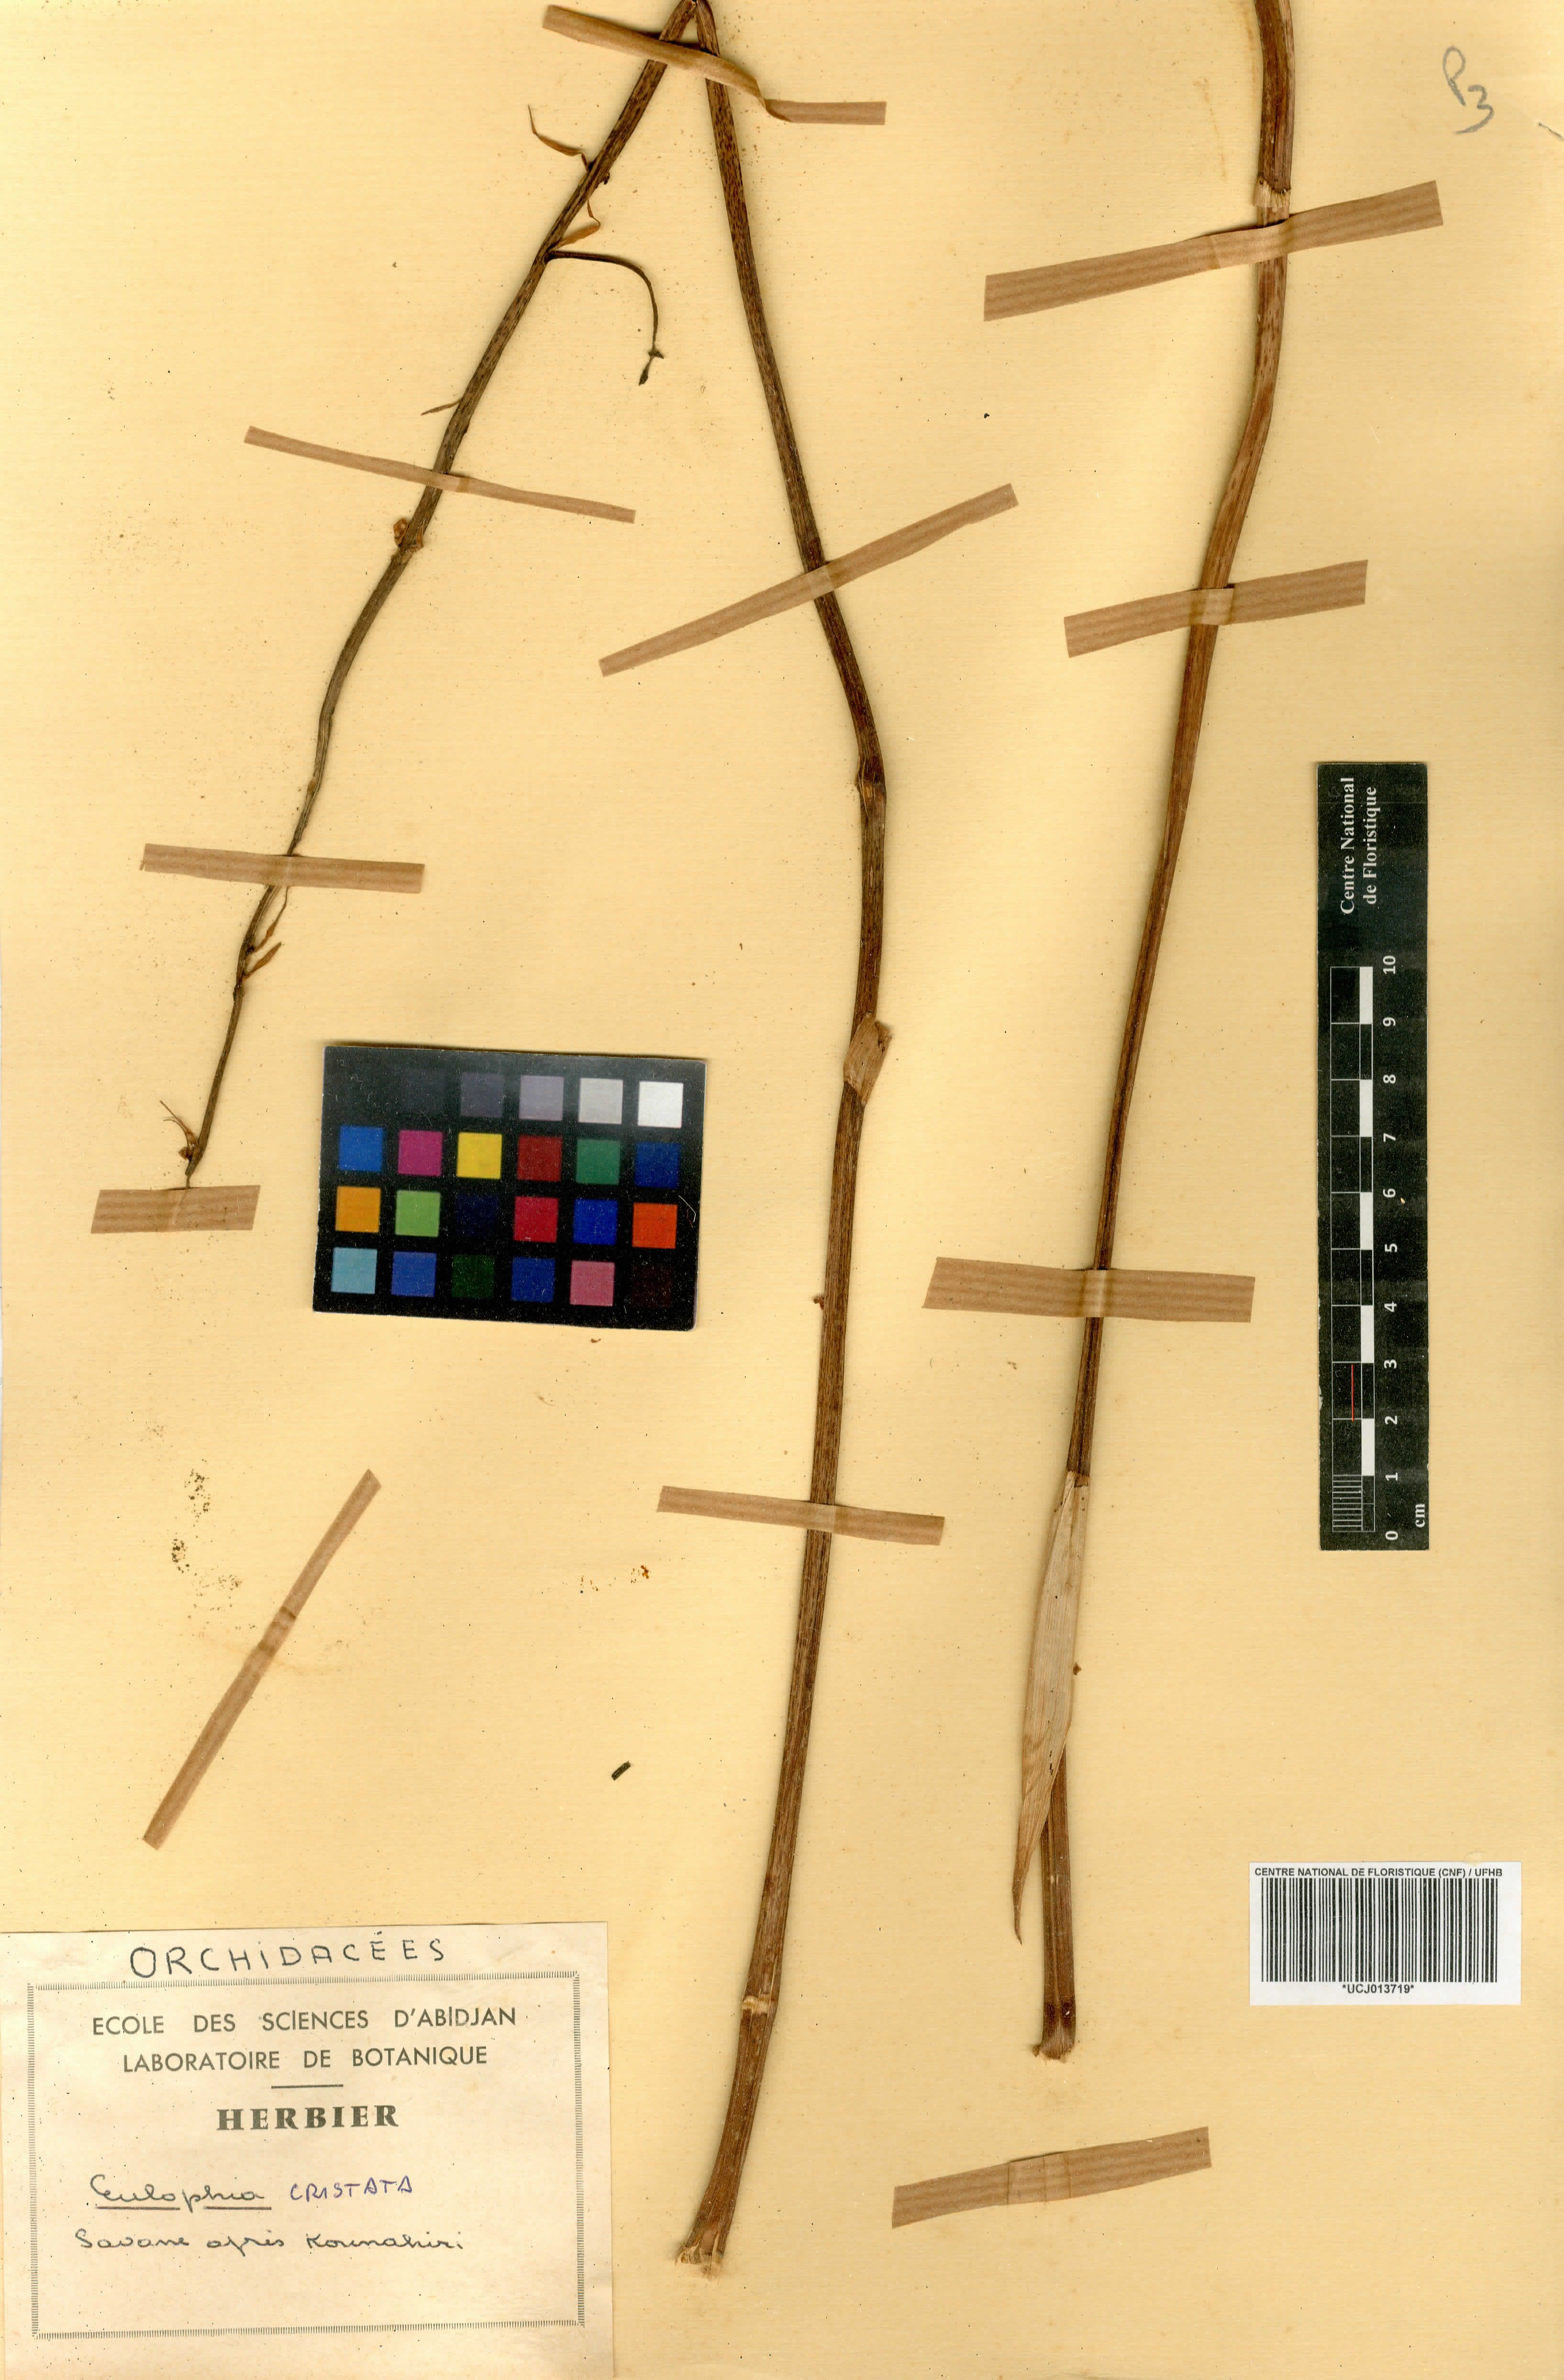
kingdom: Plantae
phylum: Tracheophyta
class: Liliopsida
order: Asparagales
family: Orchidaceae
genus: Eulophia
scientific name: Eulophia cristata
